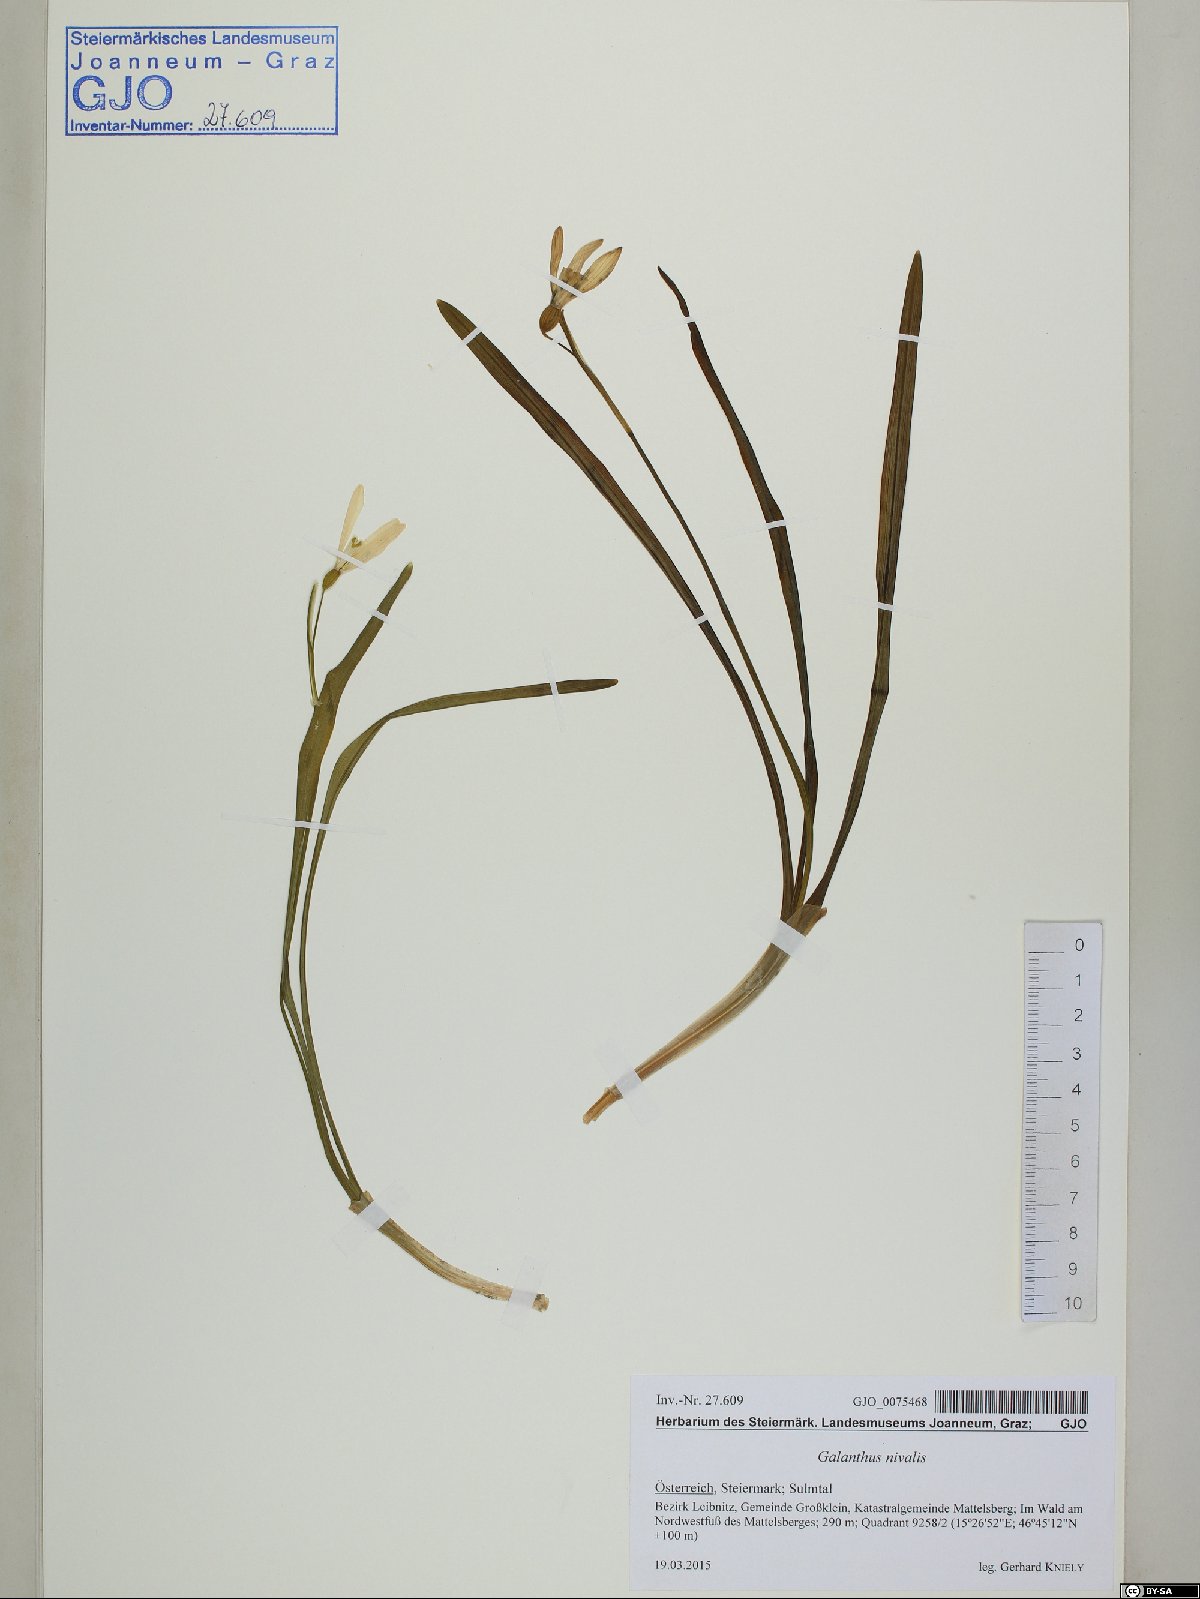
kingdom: Plantae
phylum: Tracheophyta
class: Liliopsida
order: Asparagales
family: Amaryllidaceae
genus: Galanthus
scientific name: Galanthus nivalis
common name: Snowdrop
